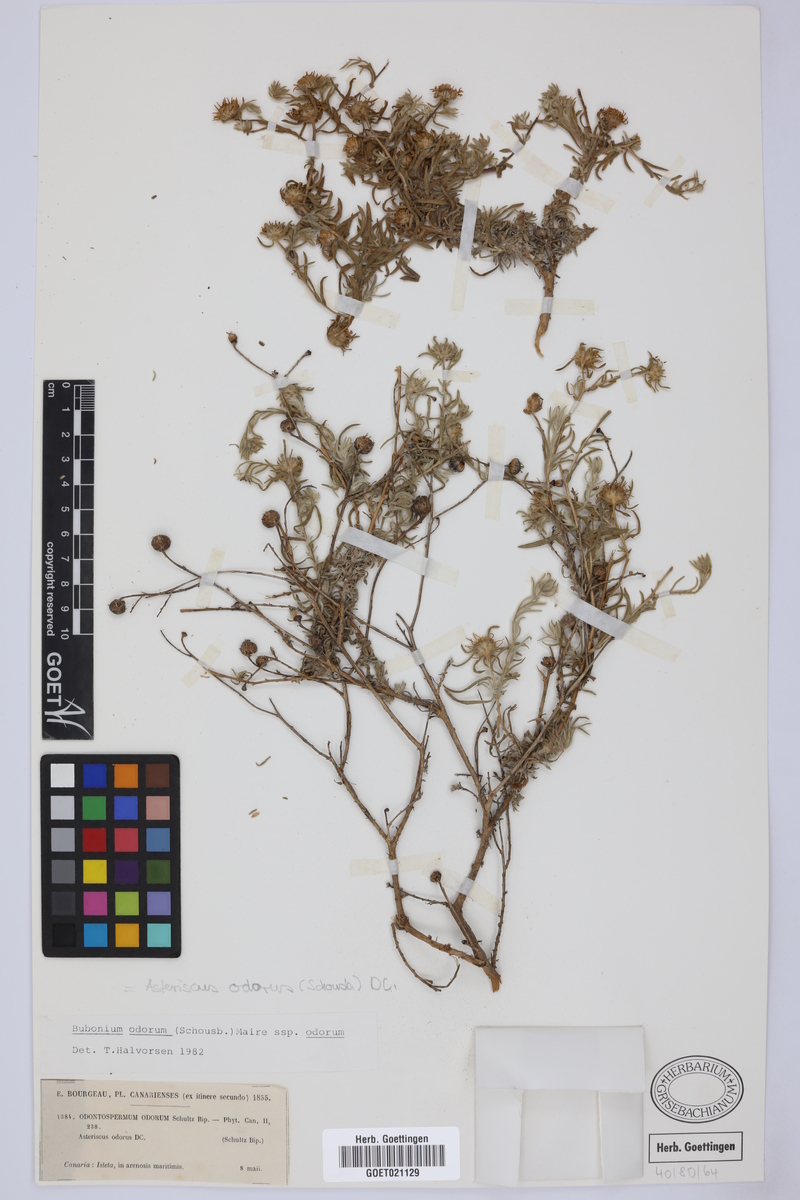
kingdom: Plantae
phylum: Tracheophyta
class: Magnoliopsida
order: Asterales
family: Asteraceae
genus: Asteriscus
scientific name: Asteriscus graveolens
